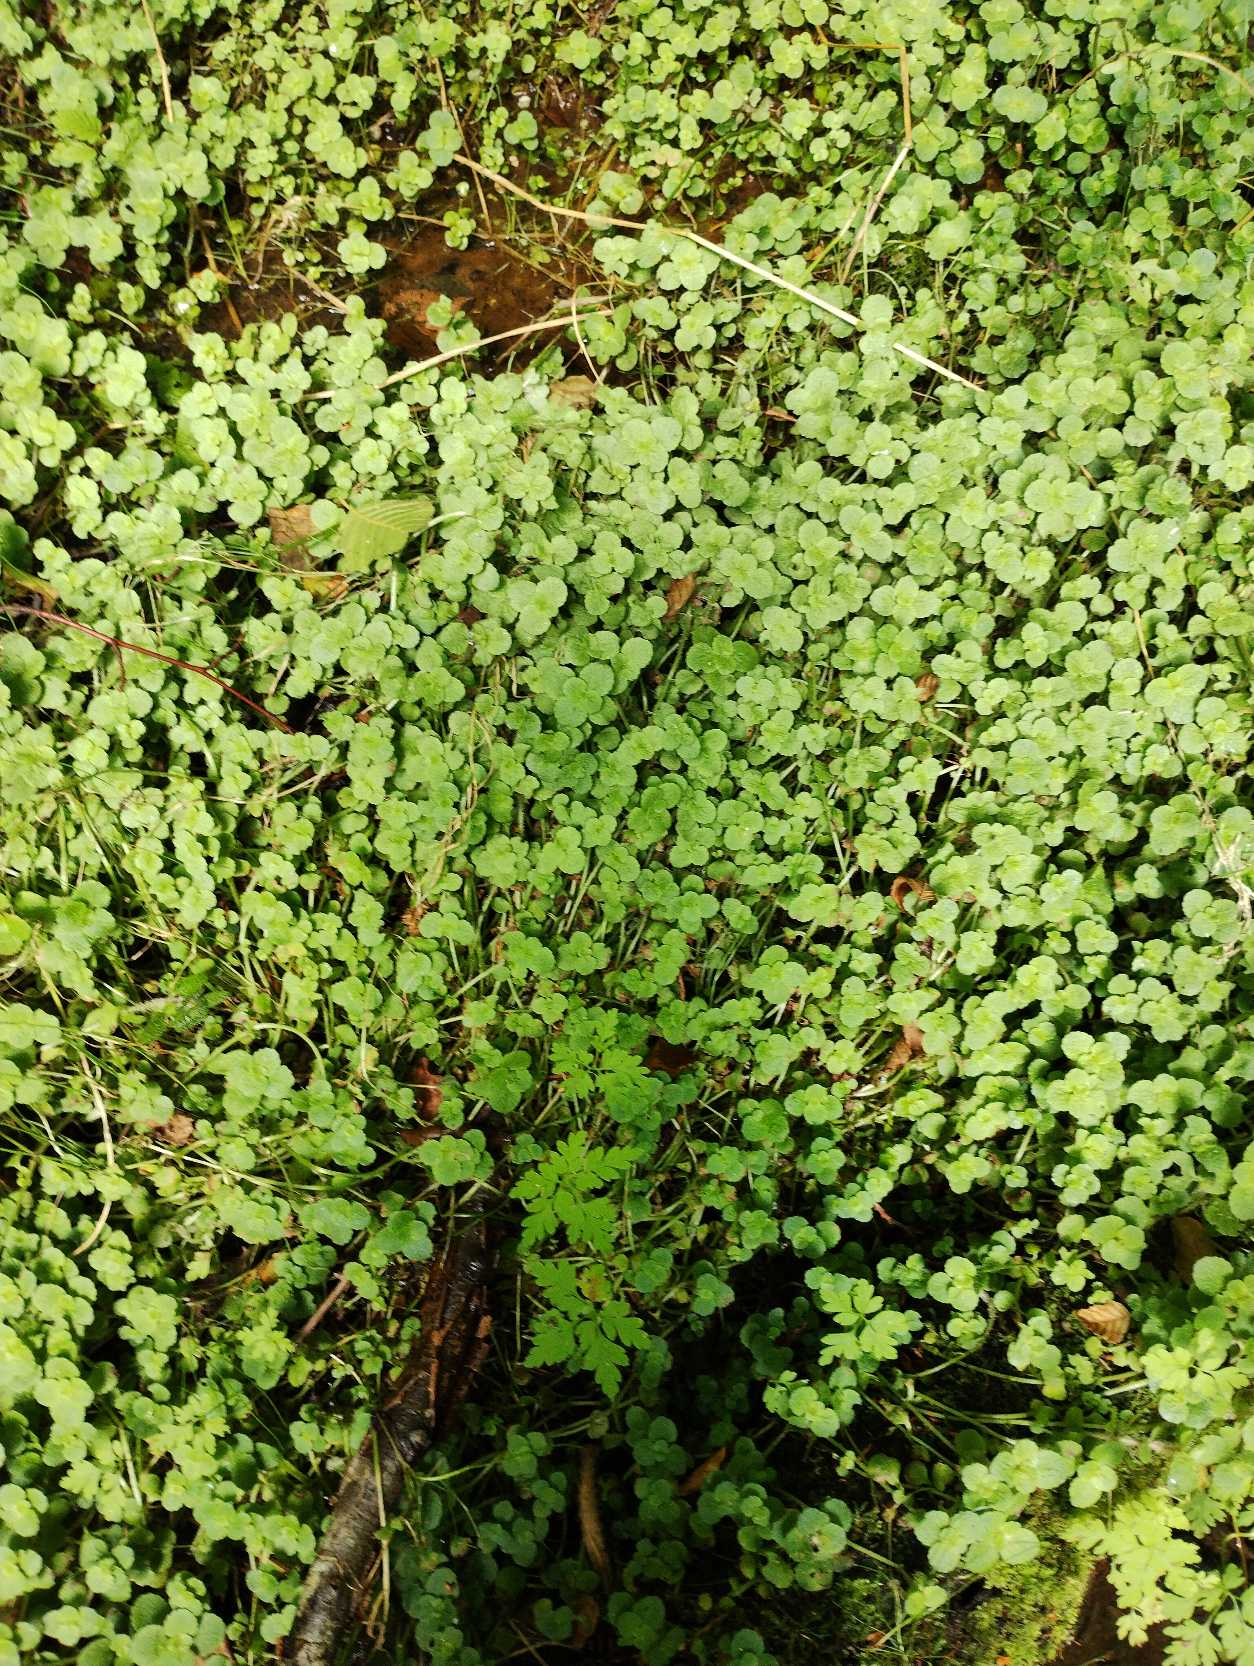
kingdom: Plantae
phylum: Tracheophyta
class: Magnoliopsida
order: Saxifragales
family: Saxifragaceae
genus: Chrysosplenium
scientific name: Chrysosplenium oppositifolium
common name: Småbladet milturt
